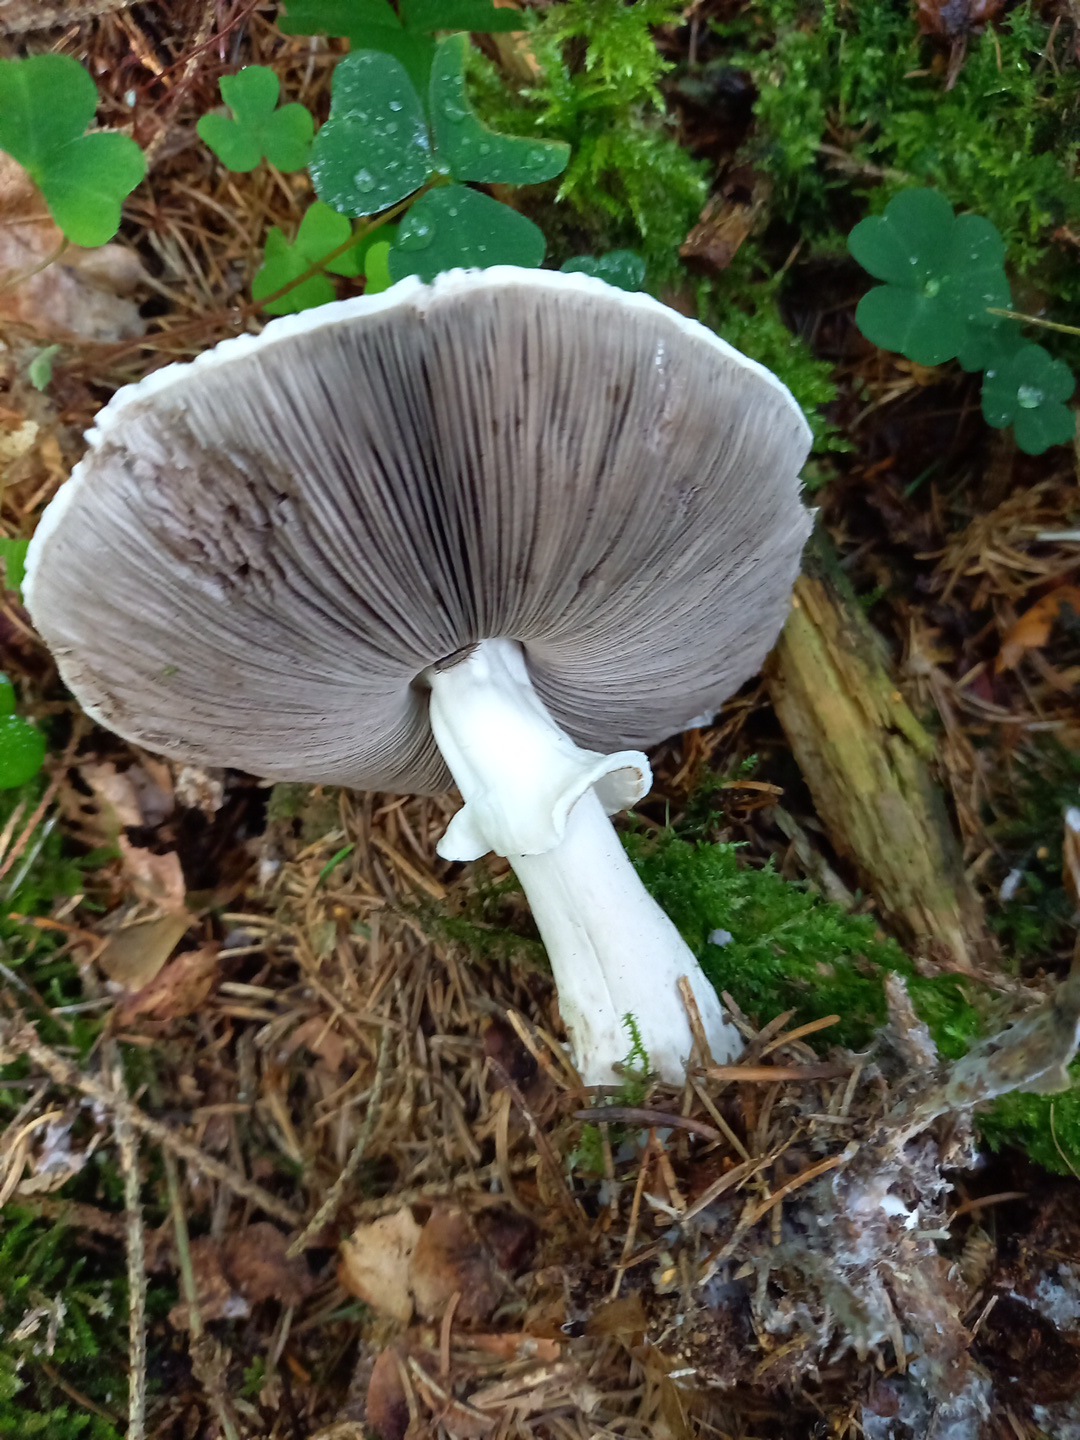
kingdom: Fungi
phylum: Basidiomycota
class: Agaricomycetes
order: Agaricales
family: Agaricaceae
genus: Agaricus
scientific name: Agaricus impudicus
